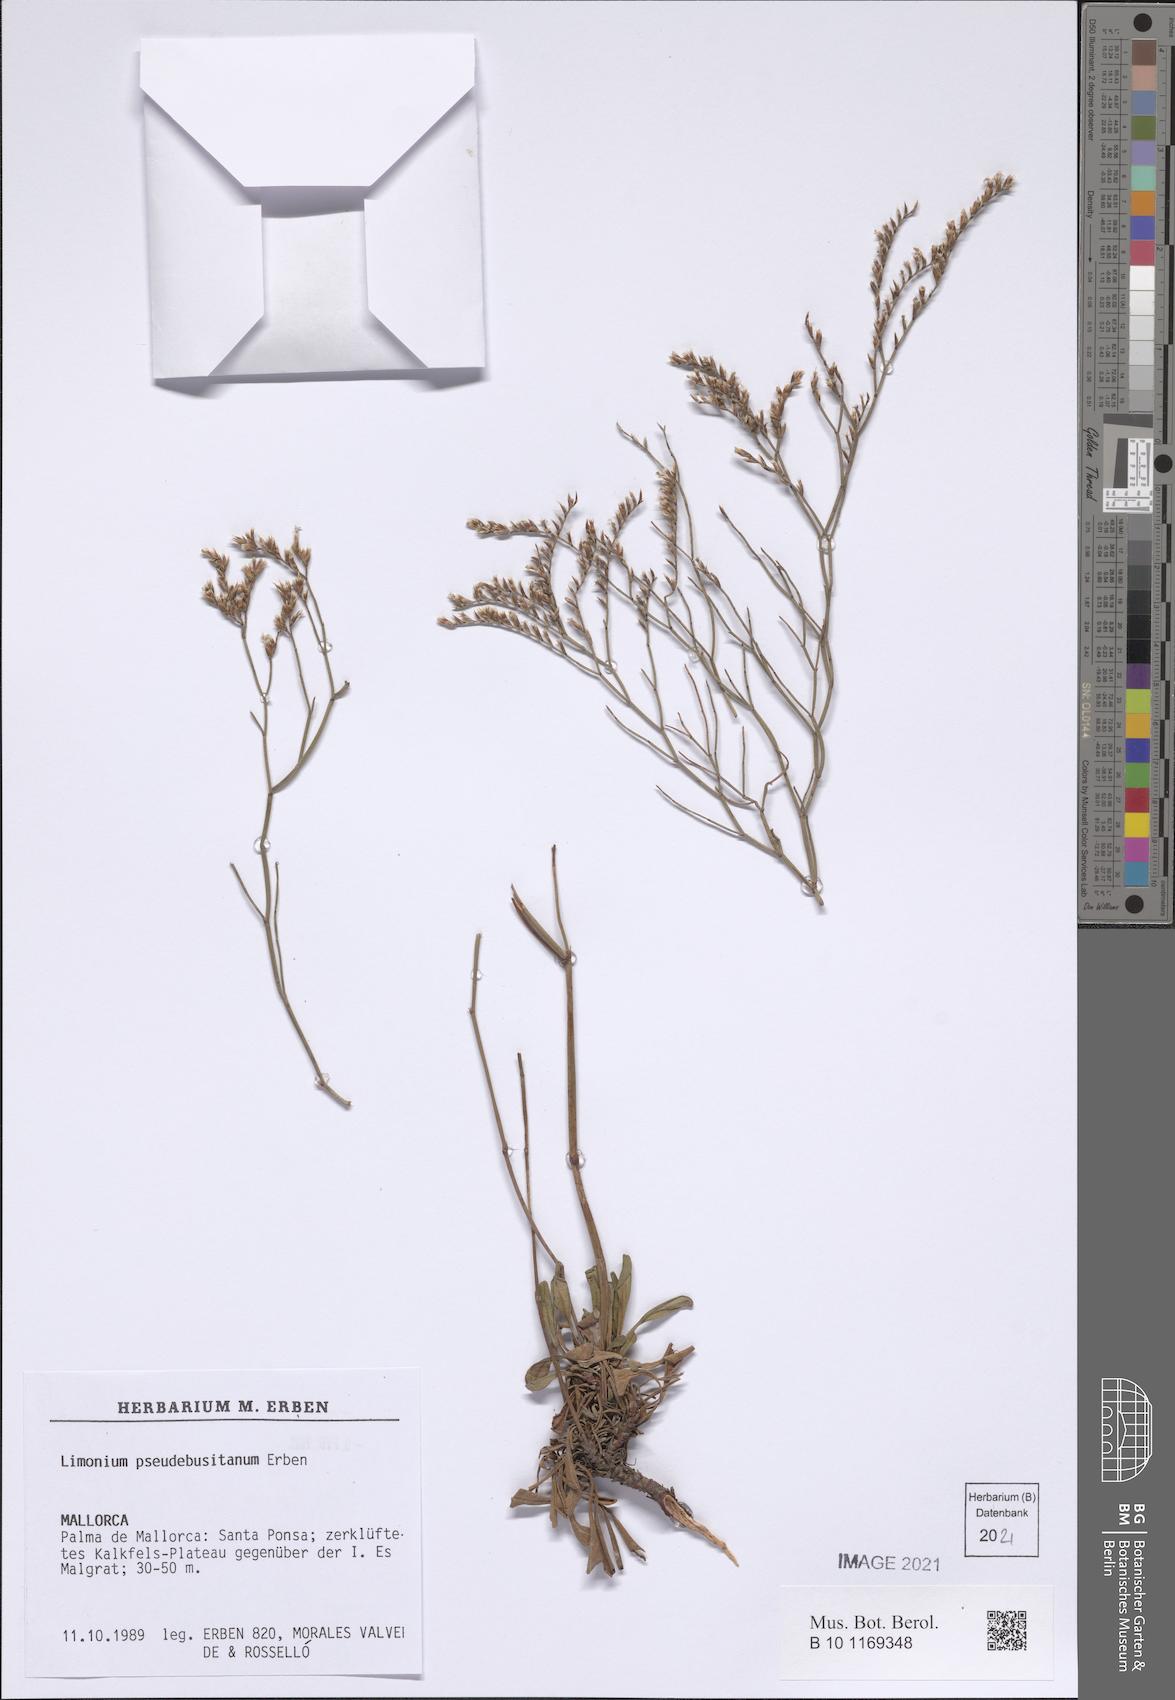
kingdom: Plantae
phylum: Tracheophyta
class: Magnoliopsida
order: Caryophyllales
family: Plumbaginaceae
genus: Limonium
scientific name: Limonium pseudebusitanum
